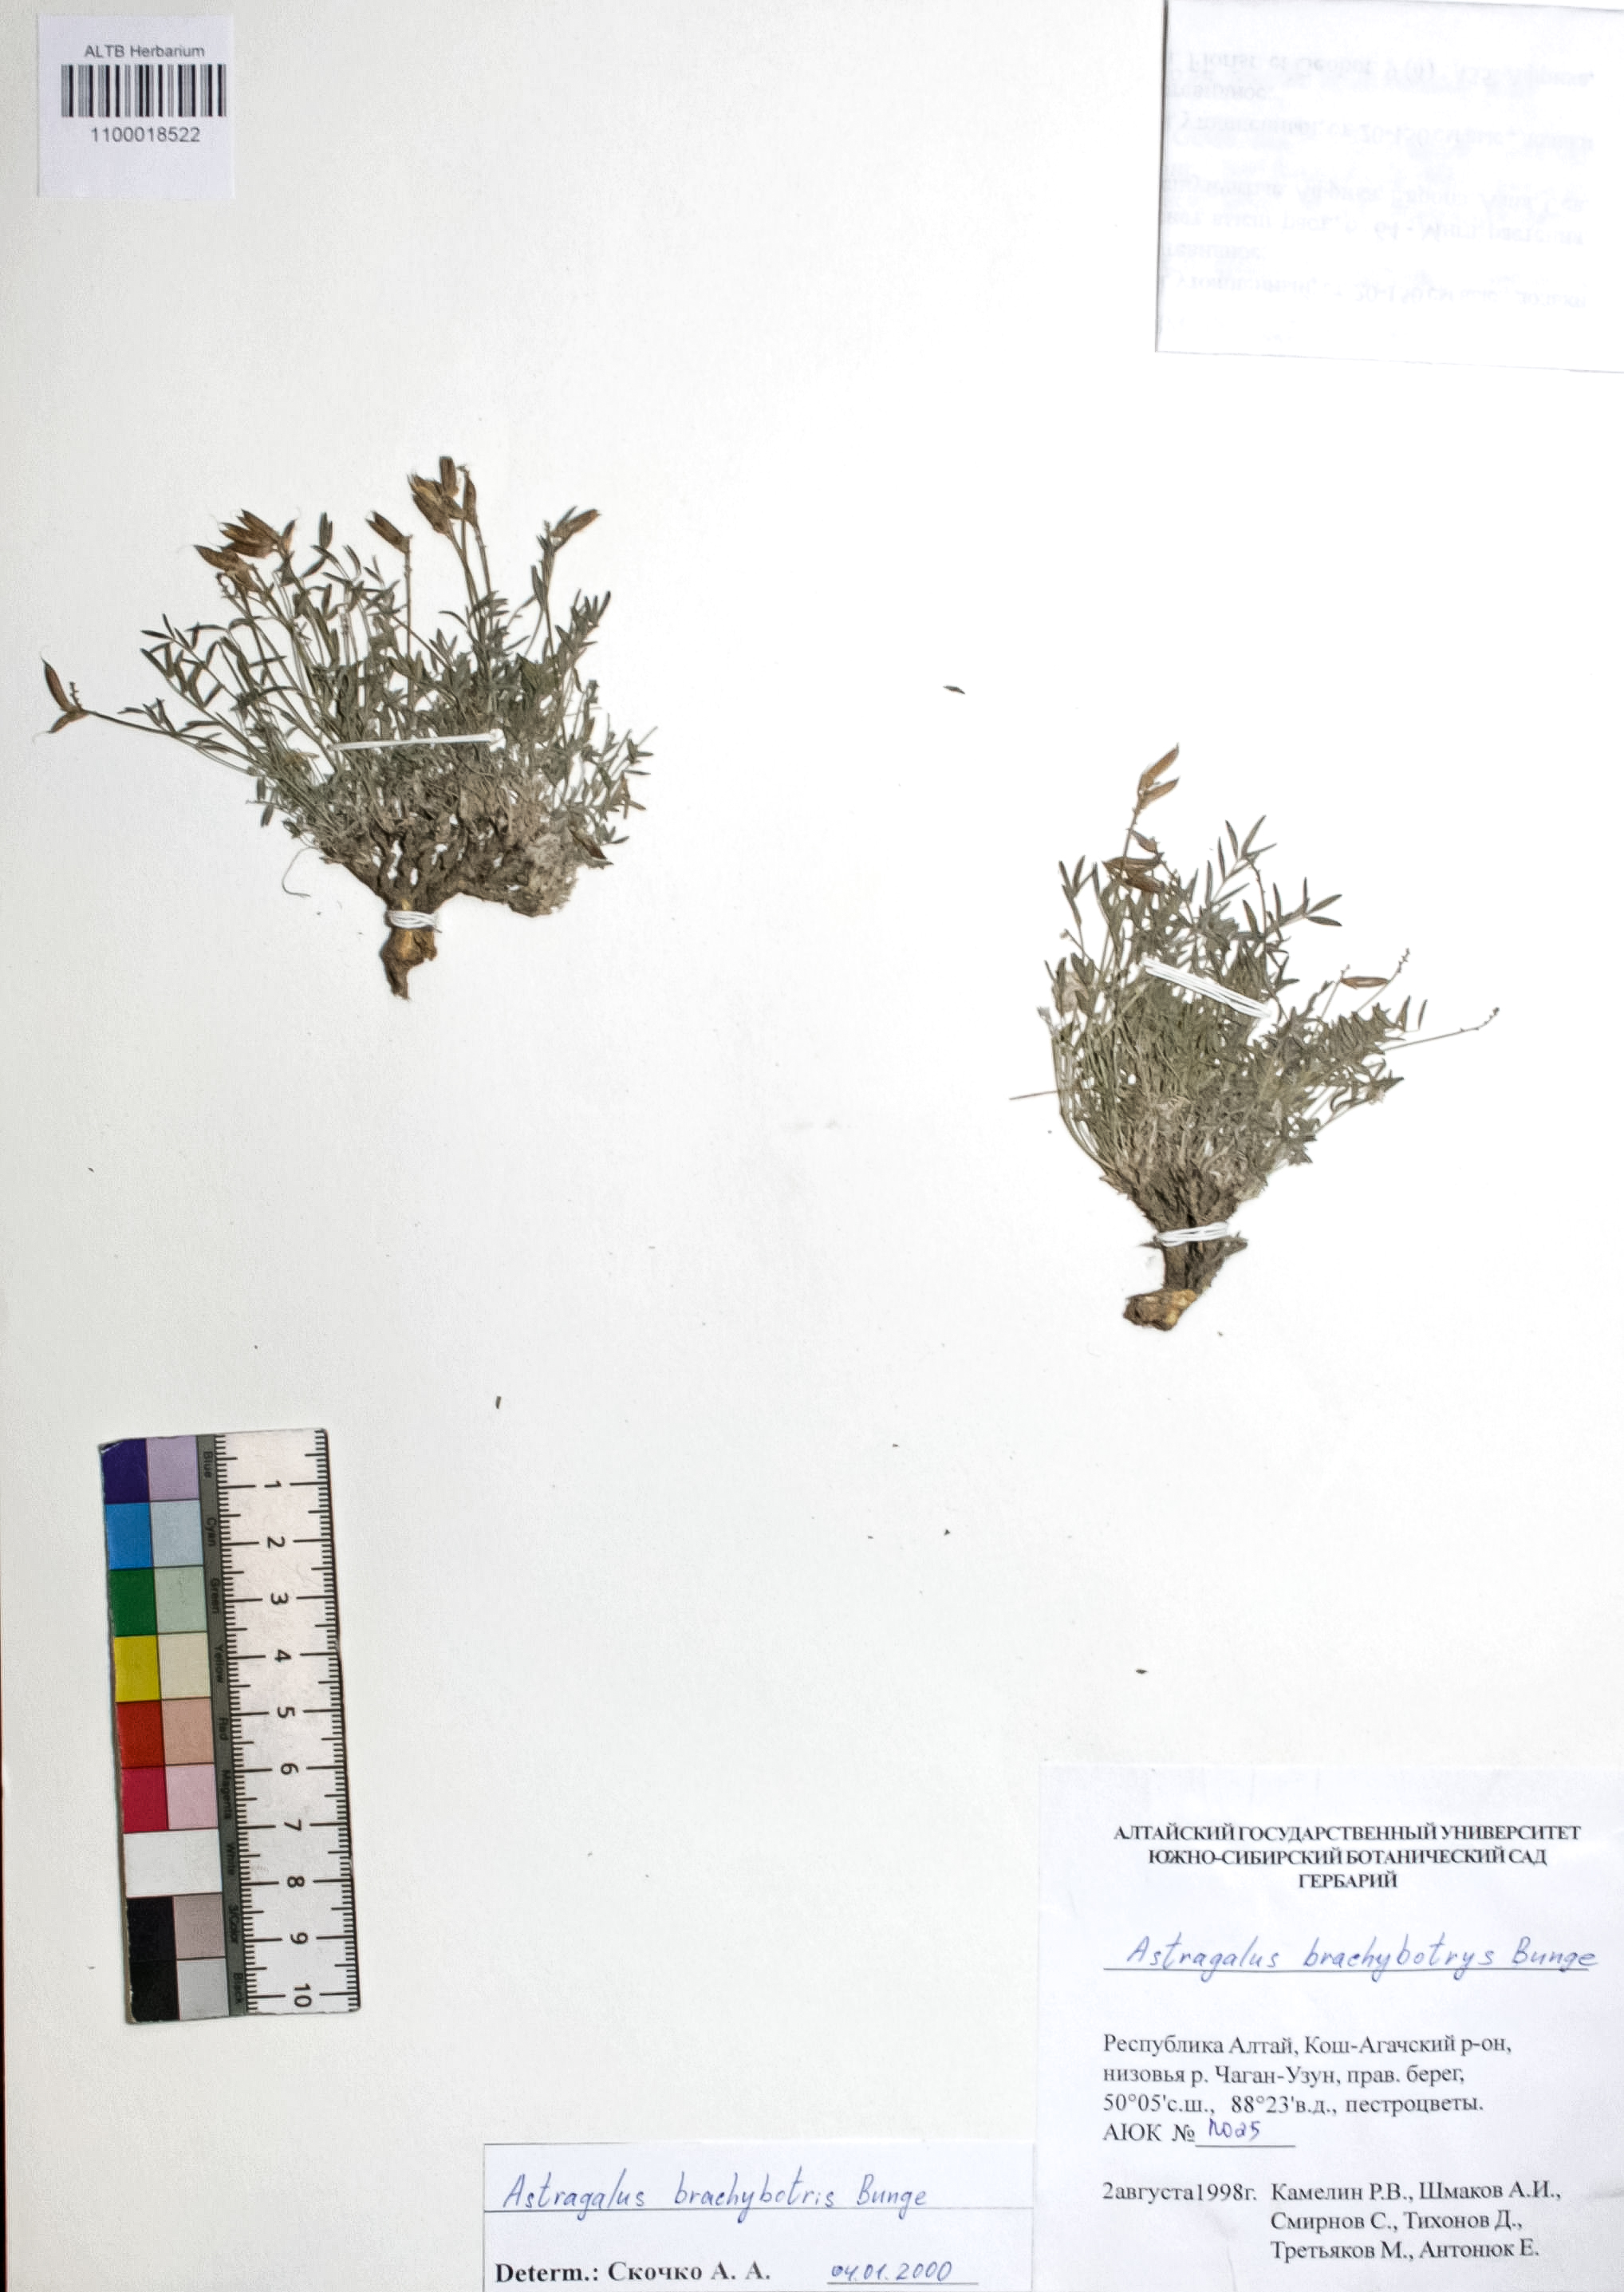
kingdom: Plantae
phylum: Tracheophyta
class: Magnoliopsida
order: Fabales
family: Fabaceae
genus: Astragalus
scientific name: Astragalus brachybotrys
